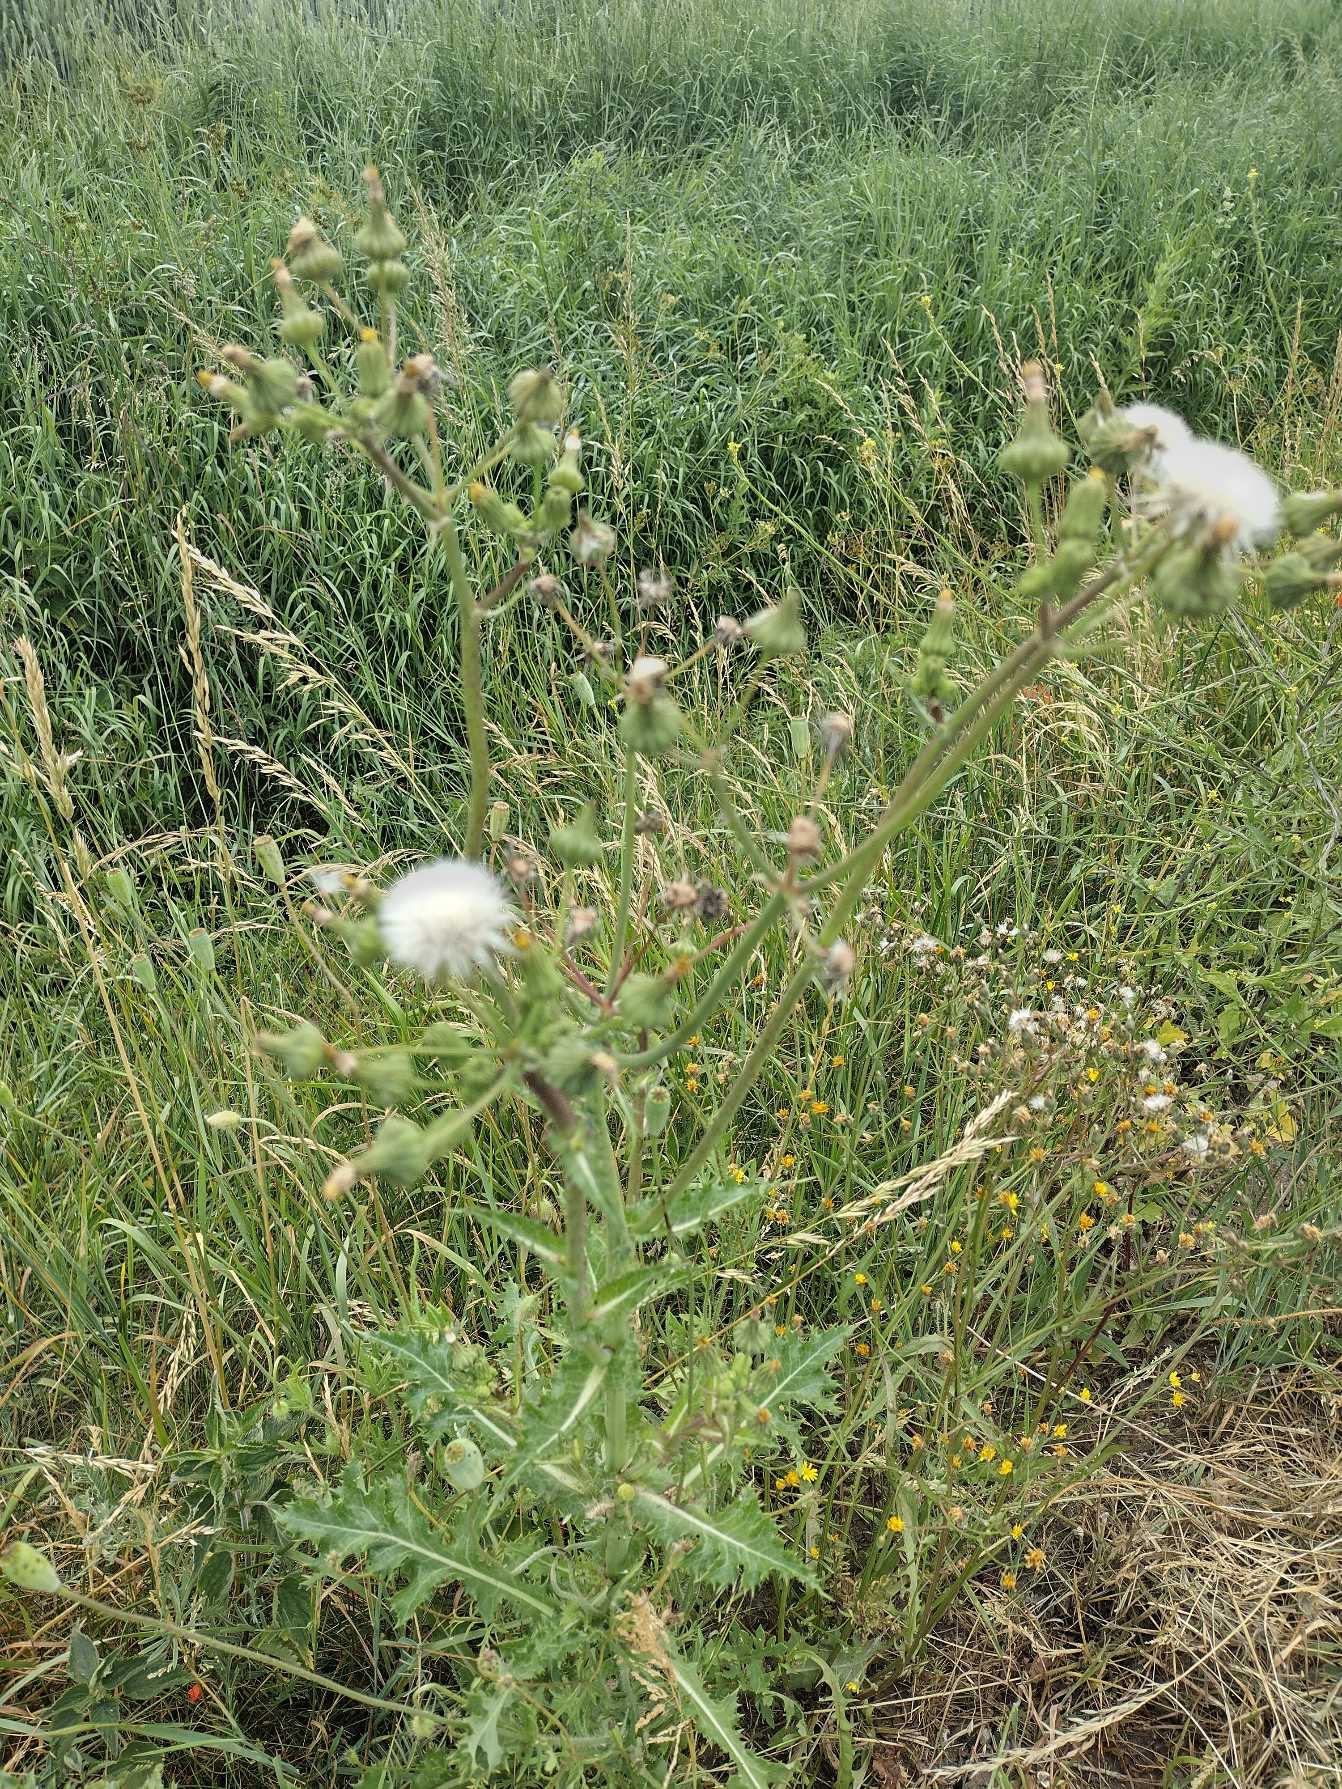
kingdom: Plantae
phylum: Tracheophyta
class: Magnoliopsida
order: Asterales
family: Asteraceae
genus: Sonchus
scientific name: Sonchus asper
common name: Ru svinemælk
